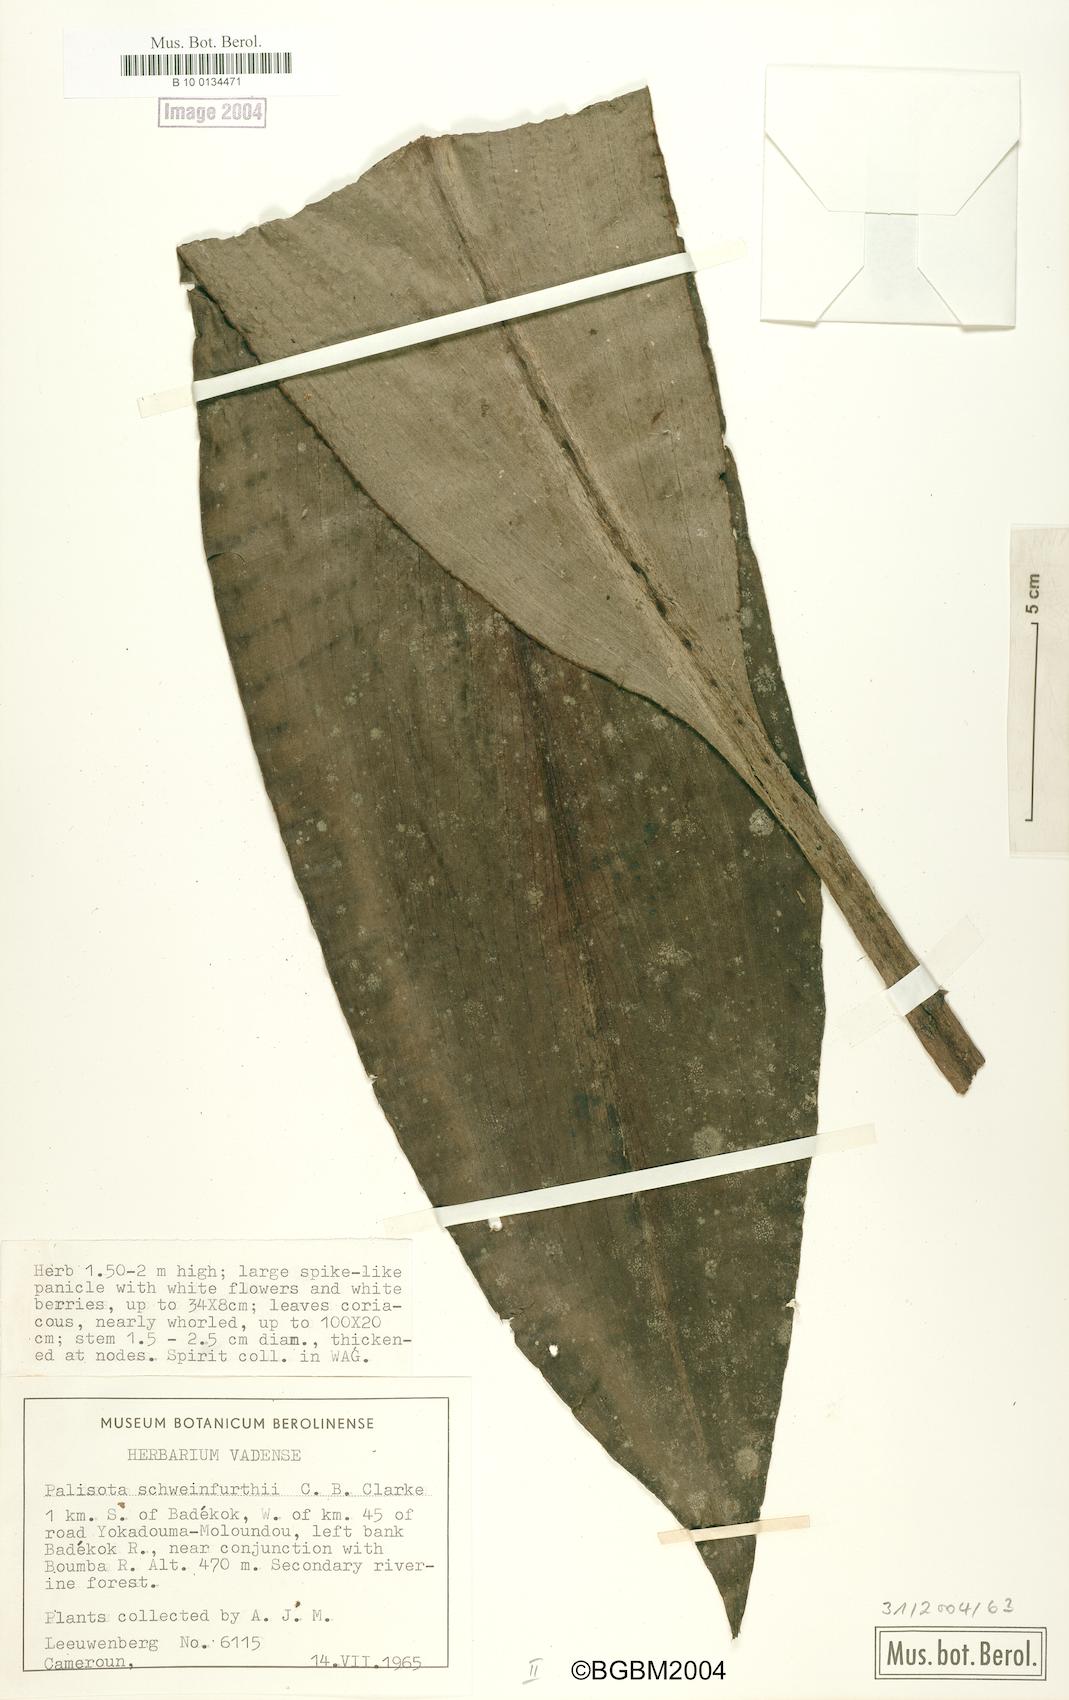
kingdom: Plantae
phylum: Tracheophyta
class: Liliopsida
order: Commelinales
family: Commelinaceae
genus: Palisota
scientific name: Palisota schweinfurthii
